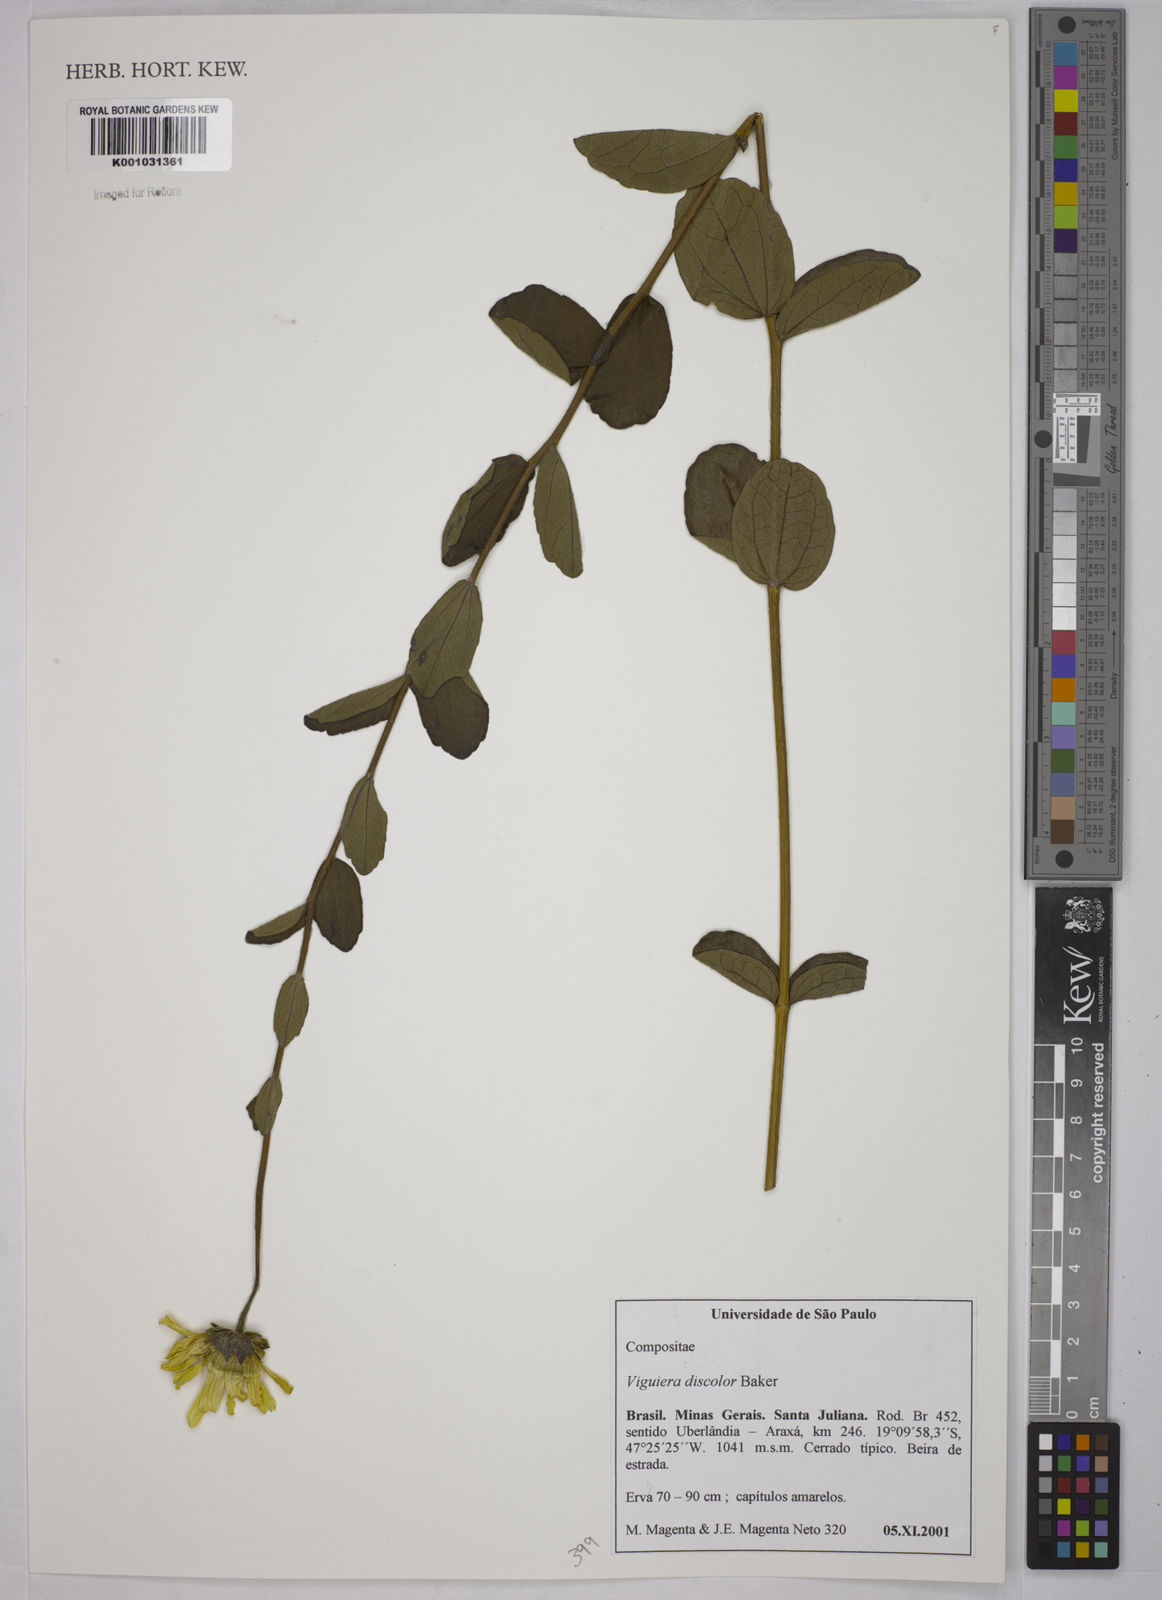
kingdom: Plantae
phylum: Tracheophyta
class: Magnoliopsida
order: Asterales
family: Asteraceae
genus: Aldama
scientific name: Aldama discolor
